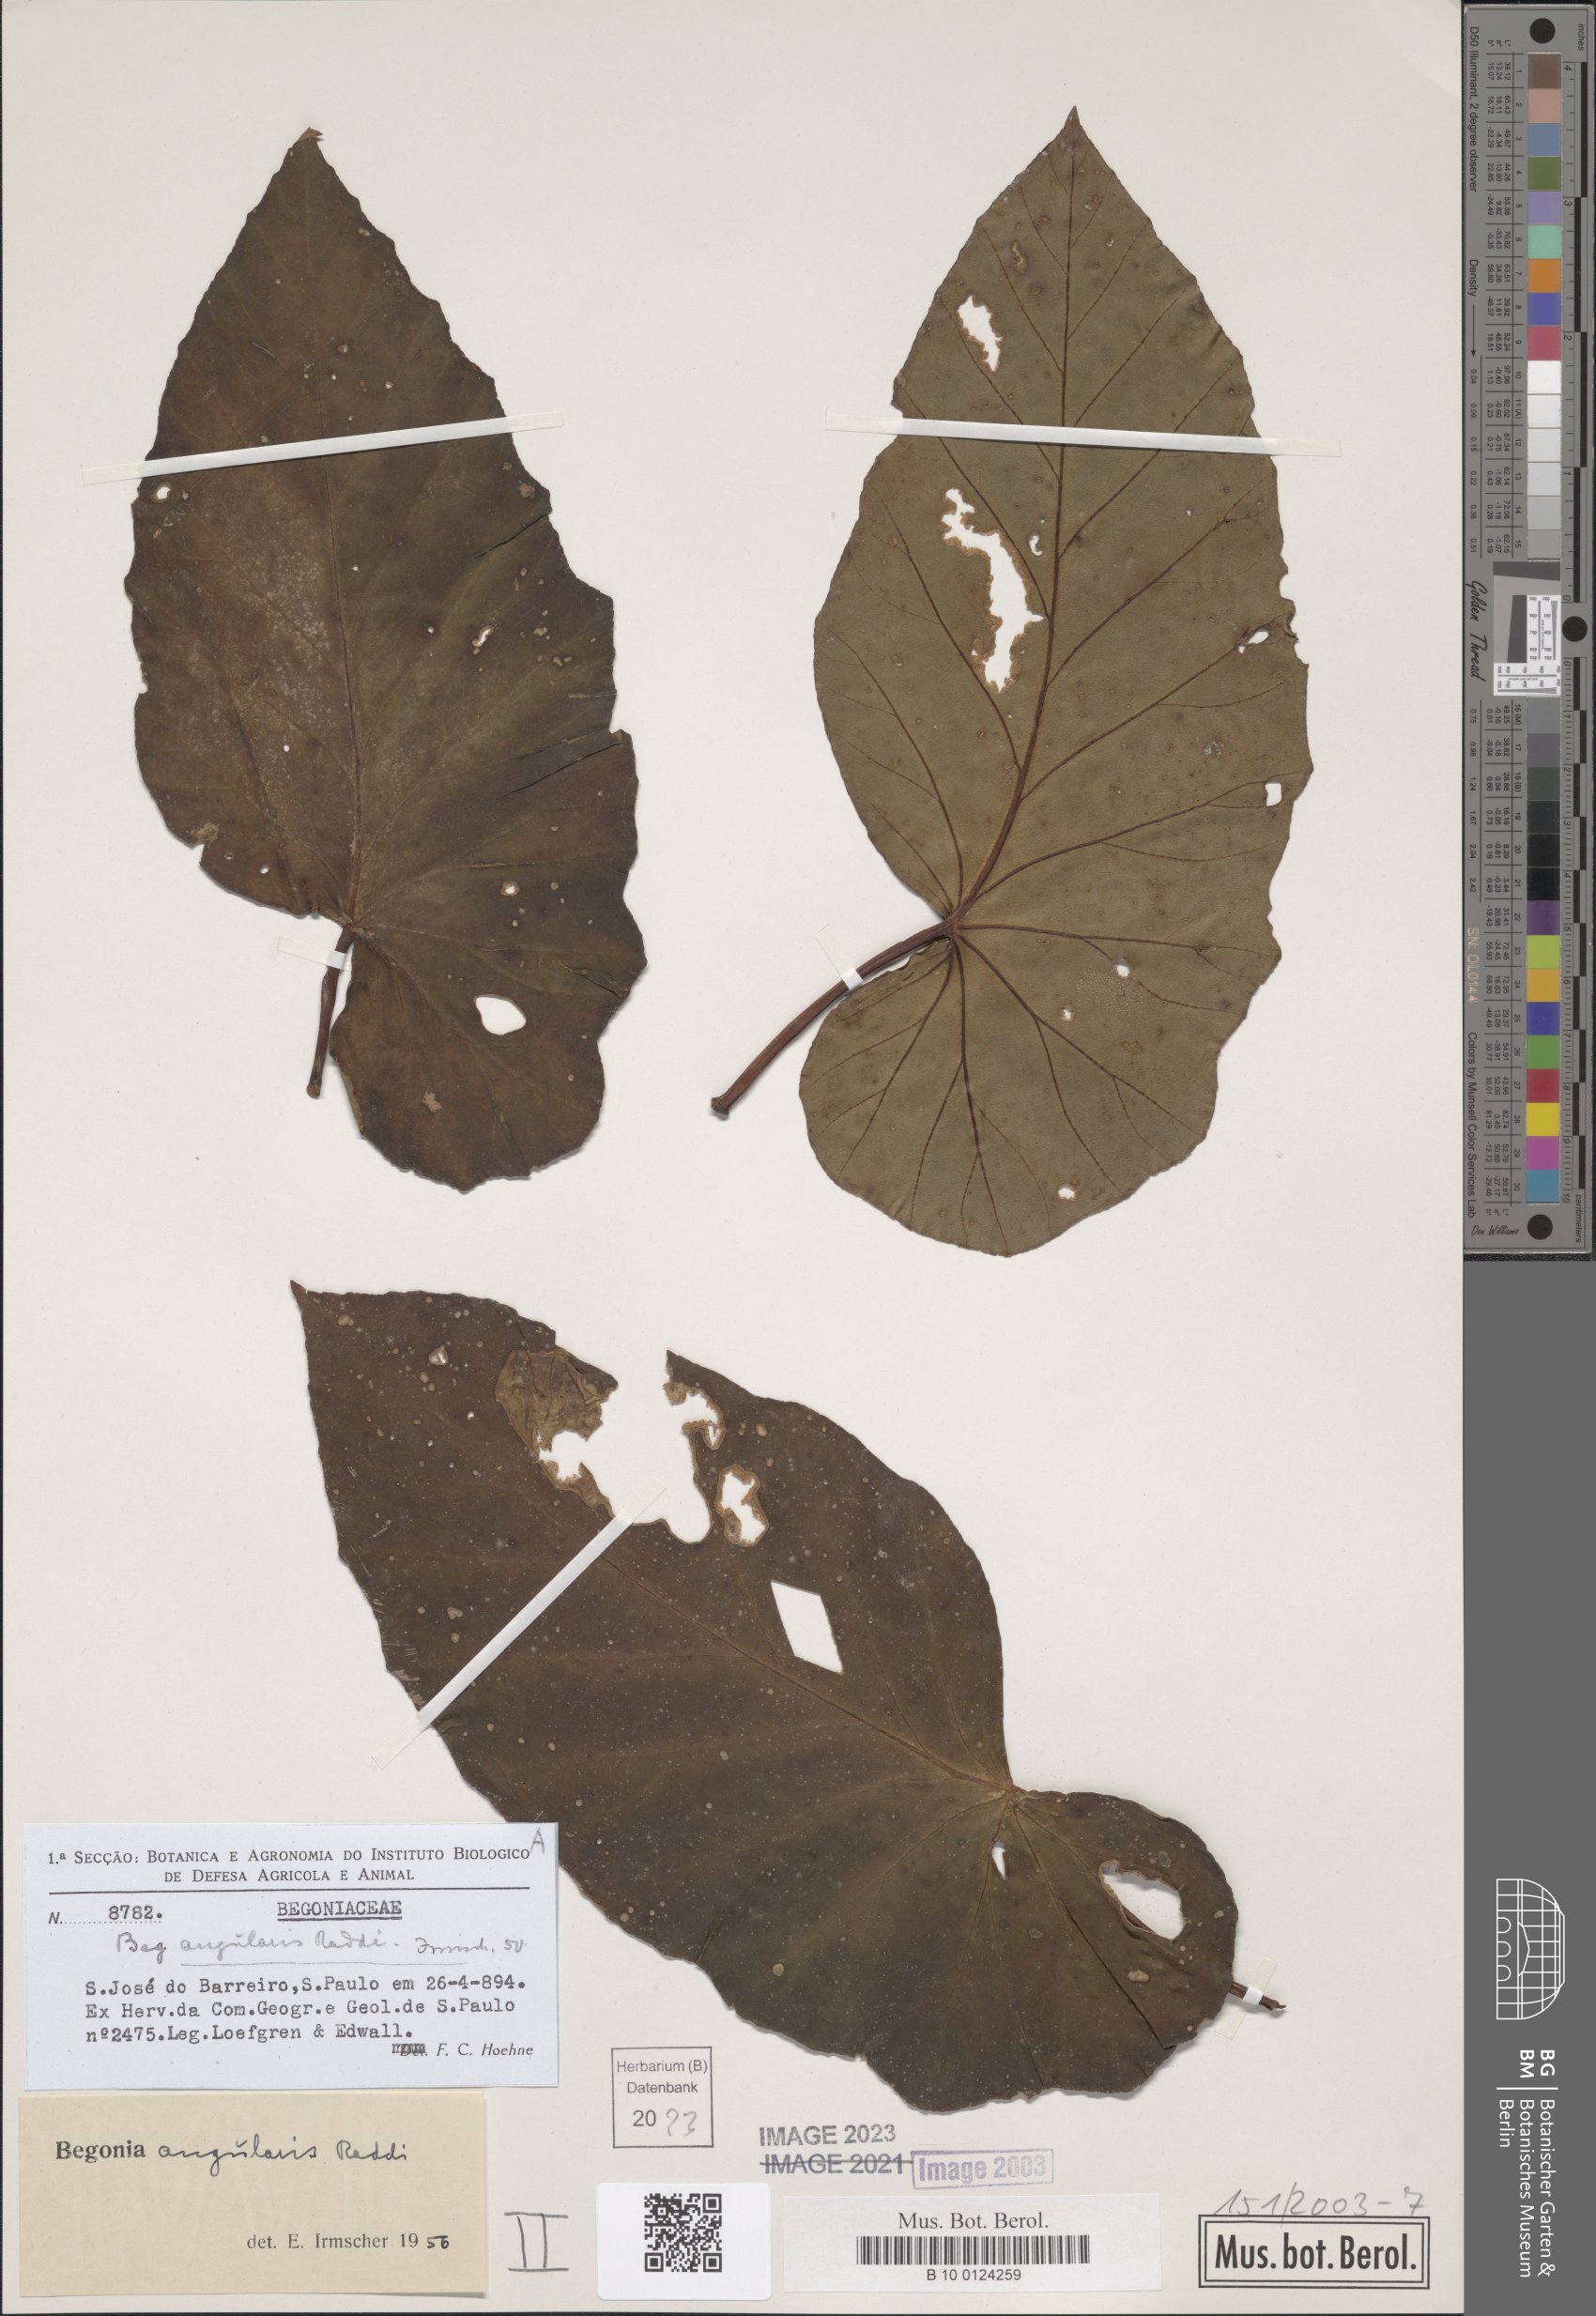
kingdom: Plantae
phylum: Tracheophyta
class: Magnoliopsida
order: Cucurbitales
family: Begoniaceae
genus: Begonia
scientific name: Begonia angularis
